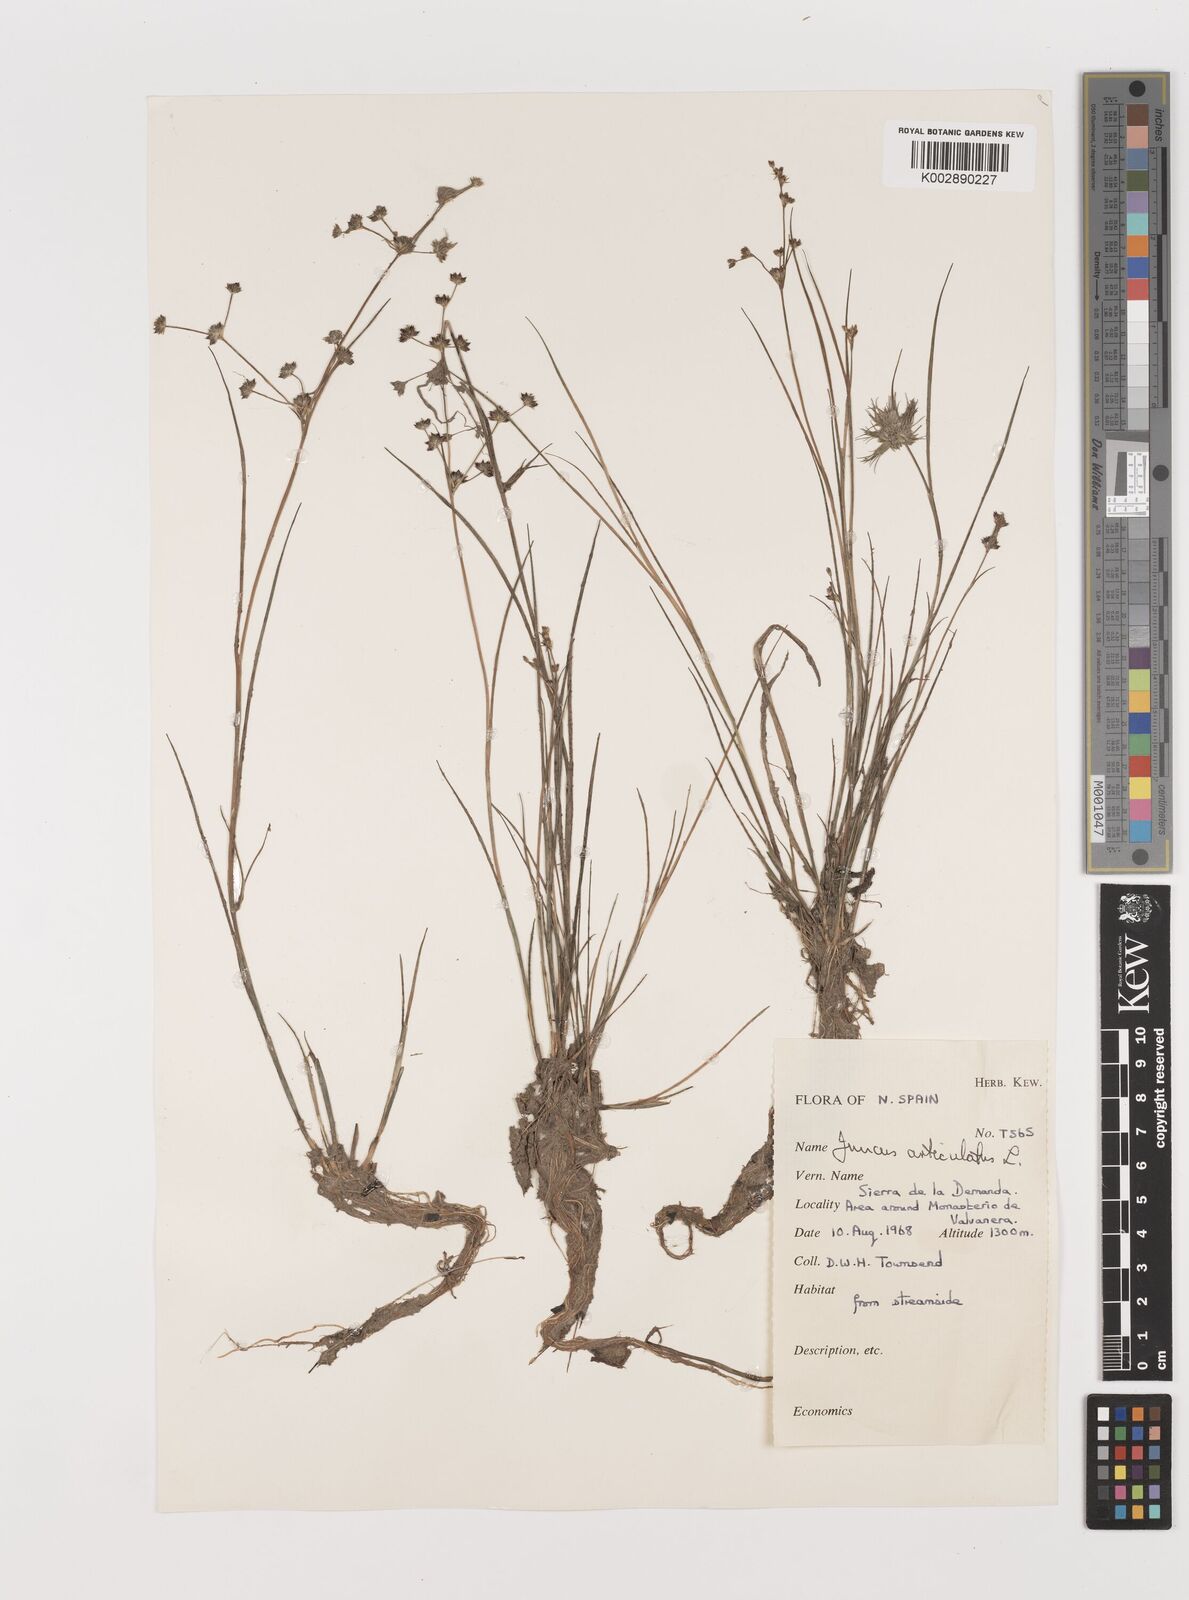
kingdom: Plantae
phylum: Tracheophyta
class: Liliopsida
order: Poales
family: Juncaceae
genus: Juncus
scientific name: Juncus articulatus
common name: Jointed rush
